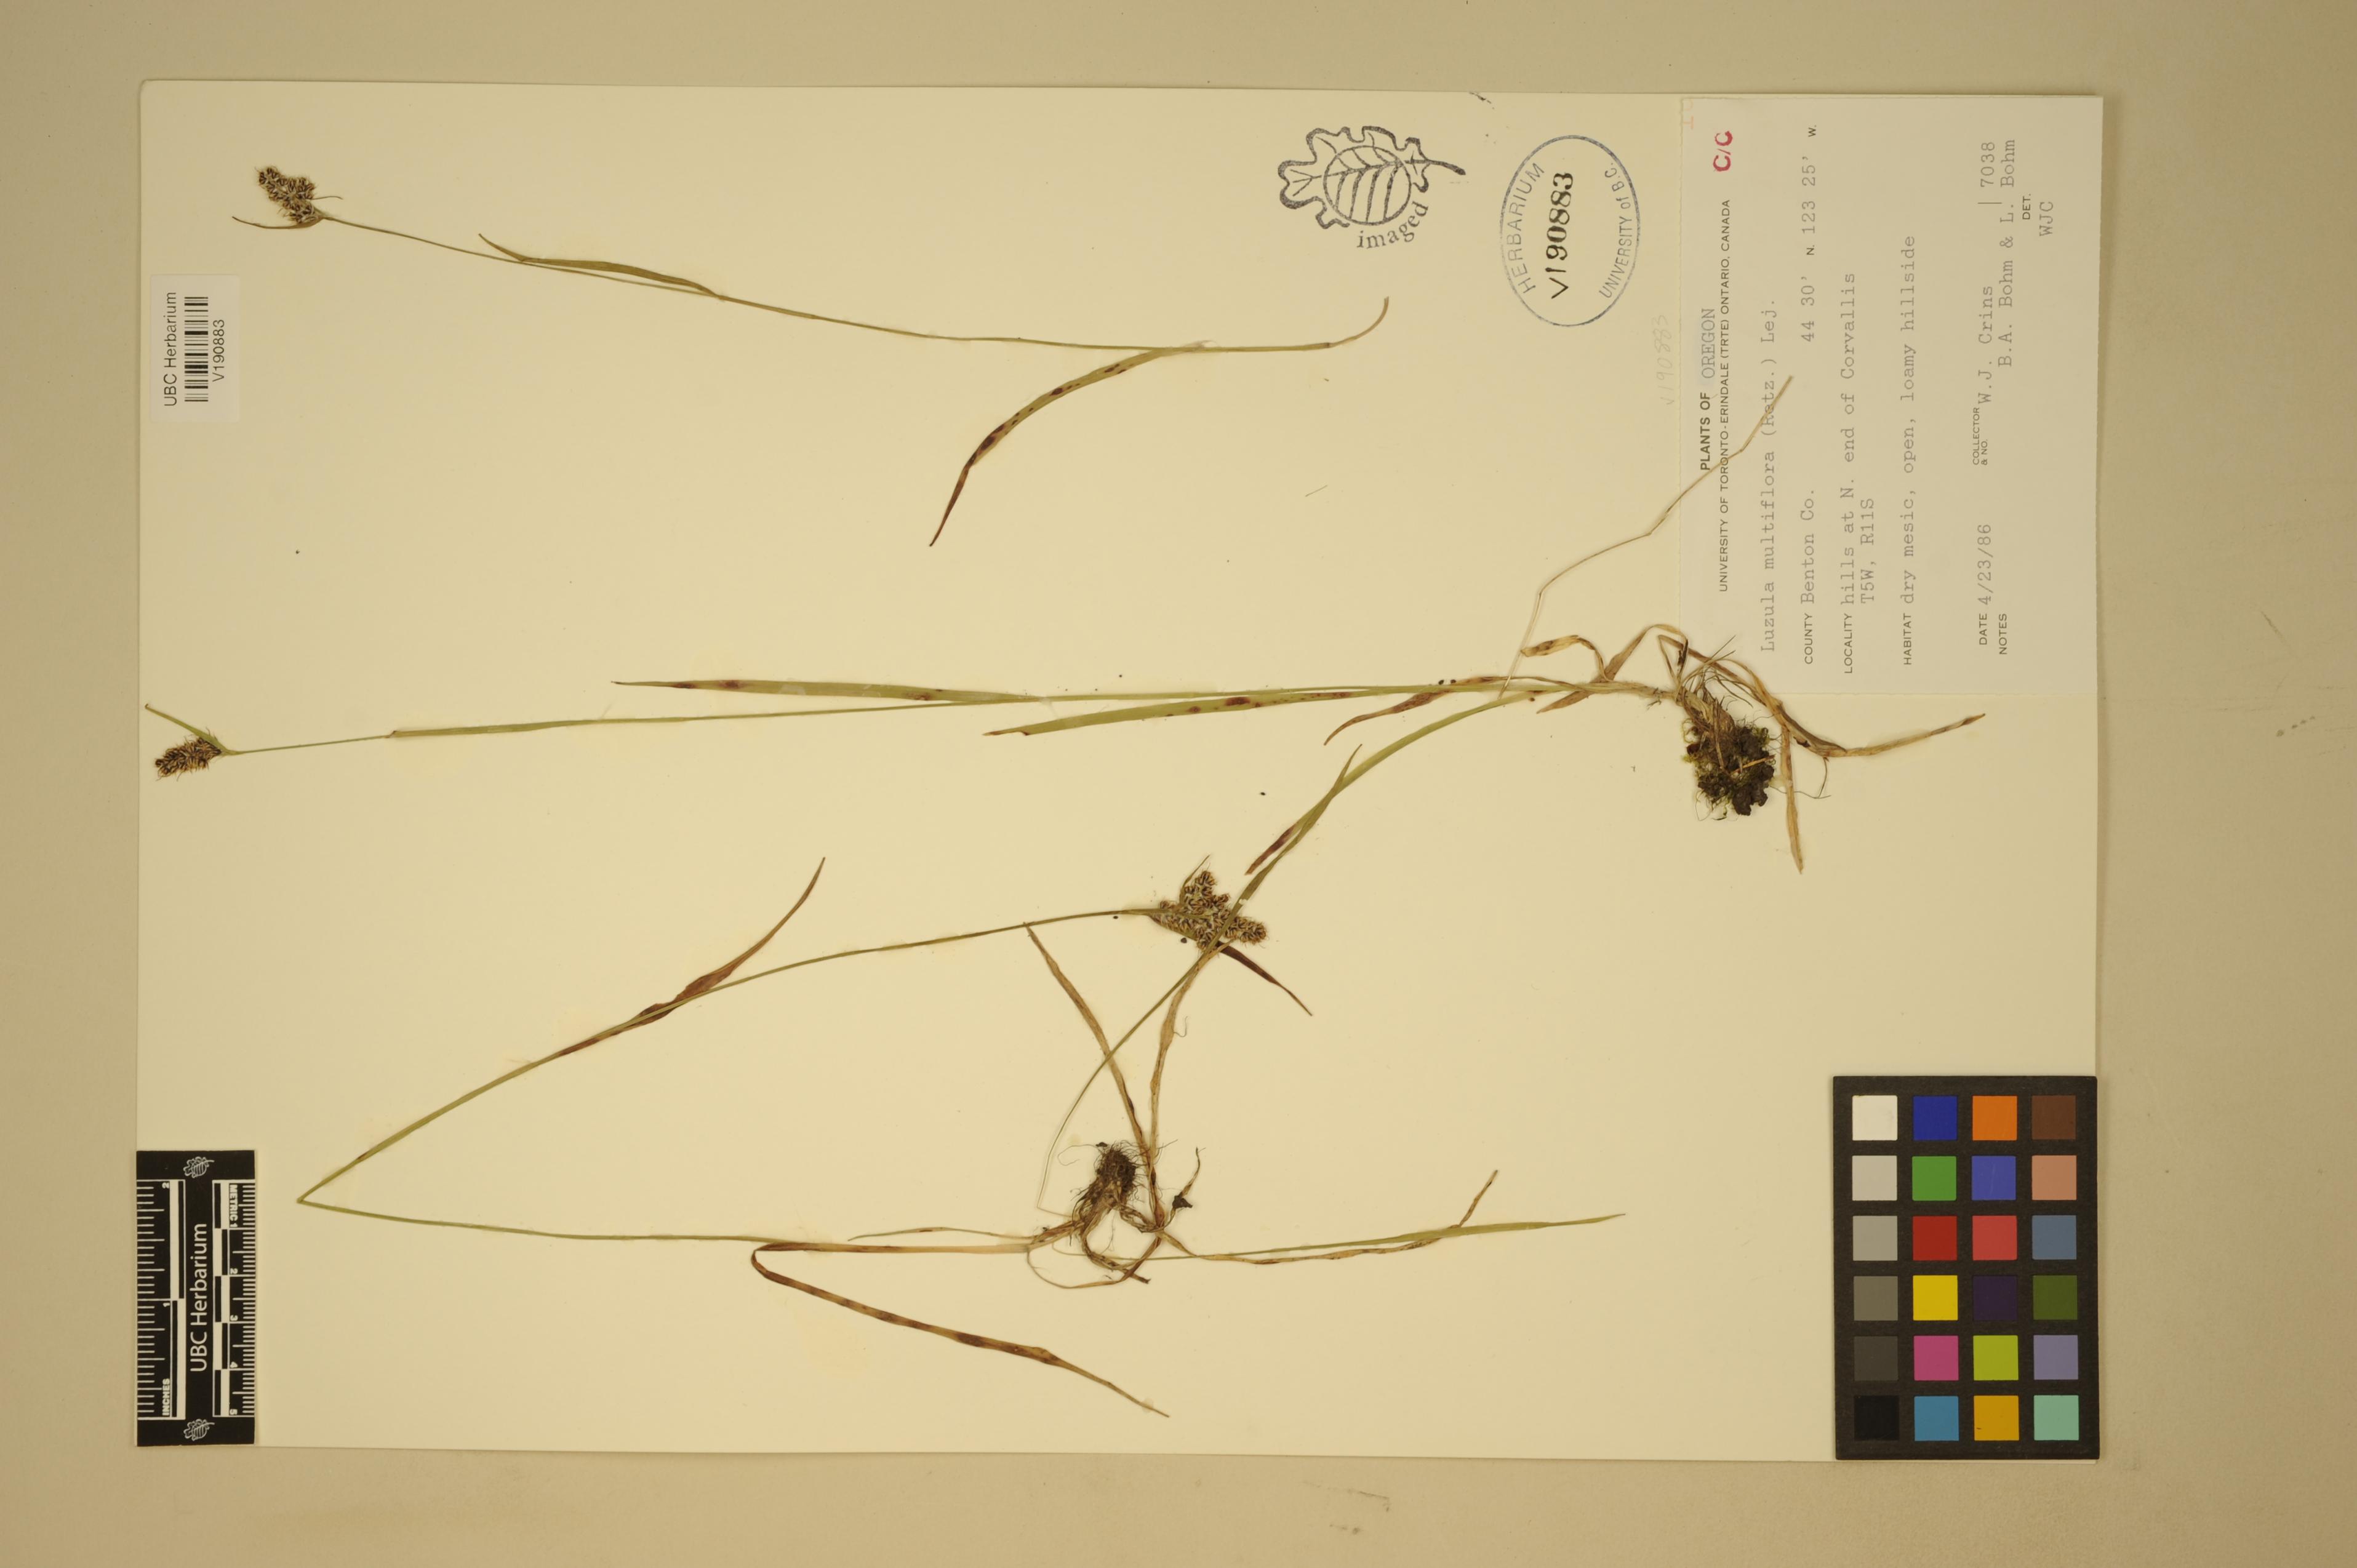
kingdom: Plantae
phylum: Tracheophyta
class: Liliopsida
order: Poales
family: Juncaceae
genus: Luzula
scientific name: Luzula macrantha
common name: Large-anthered woodrush
